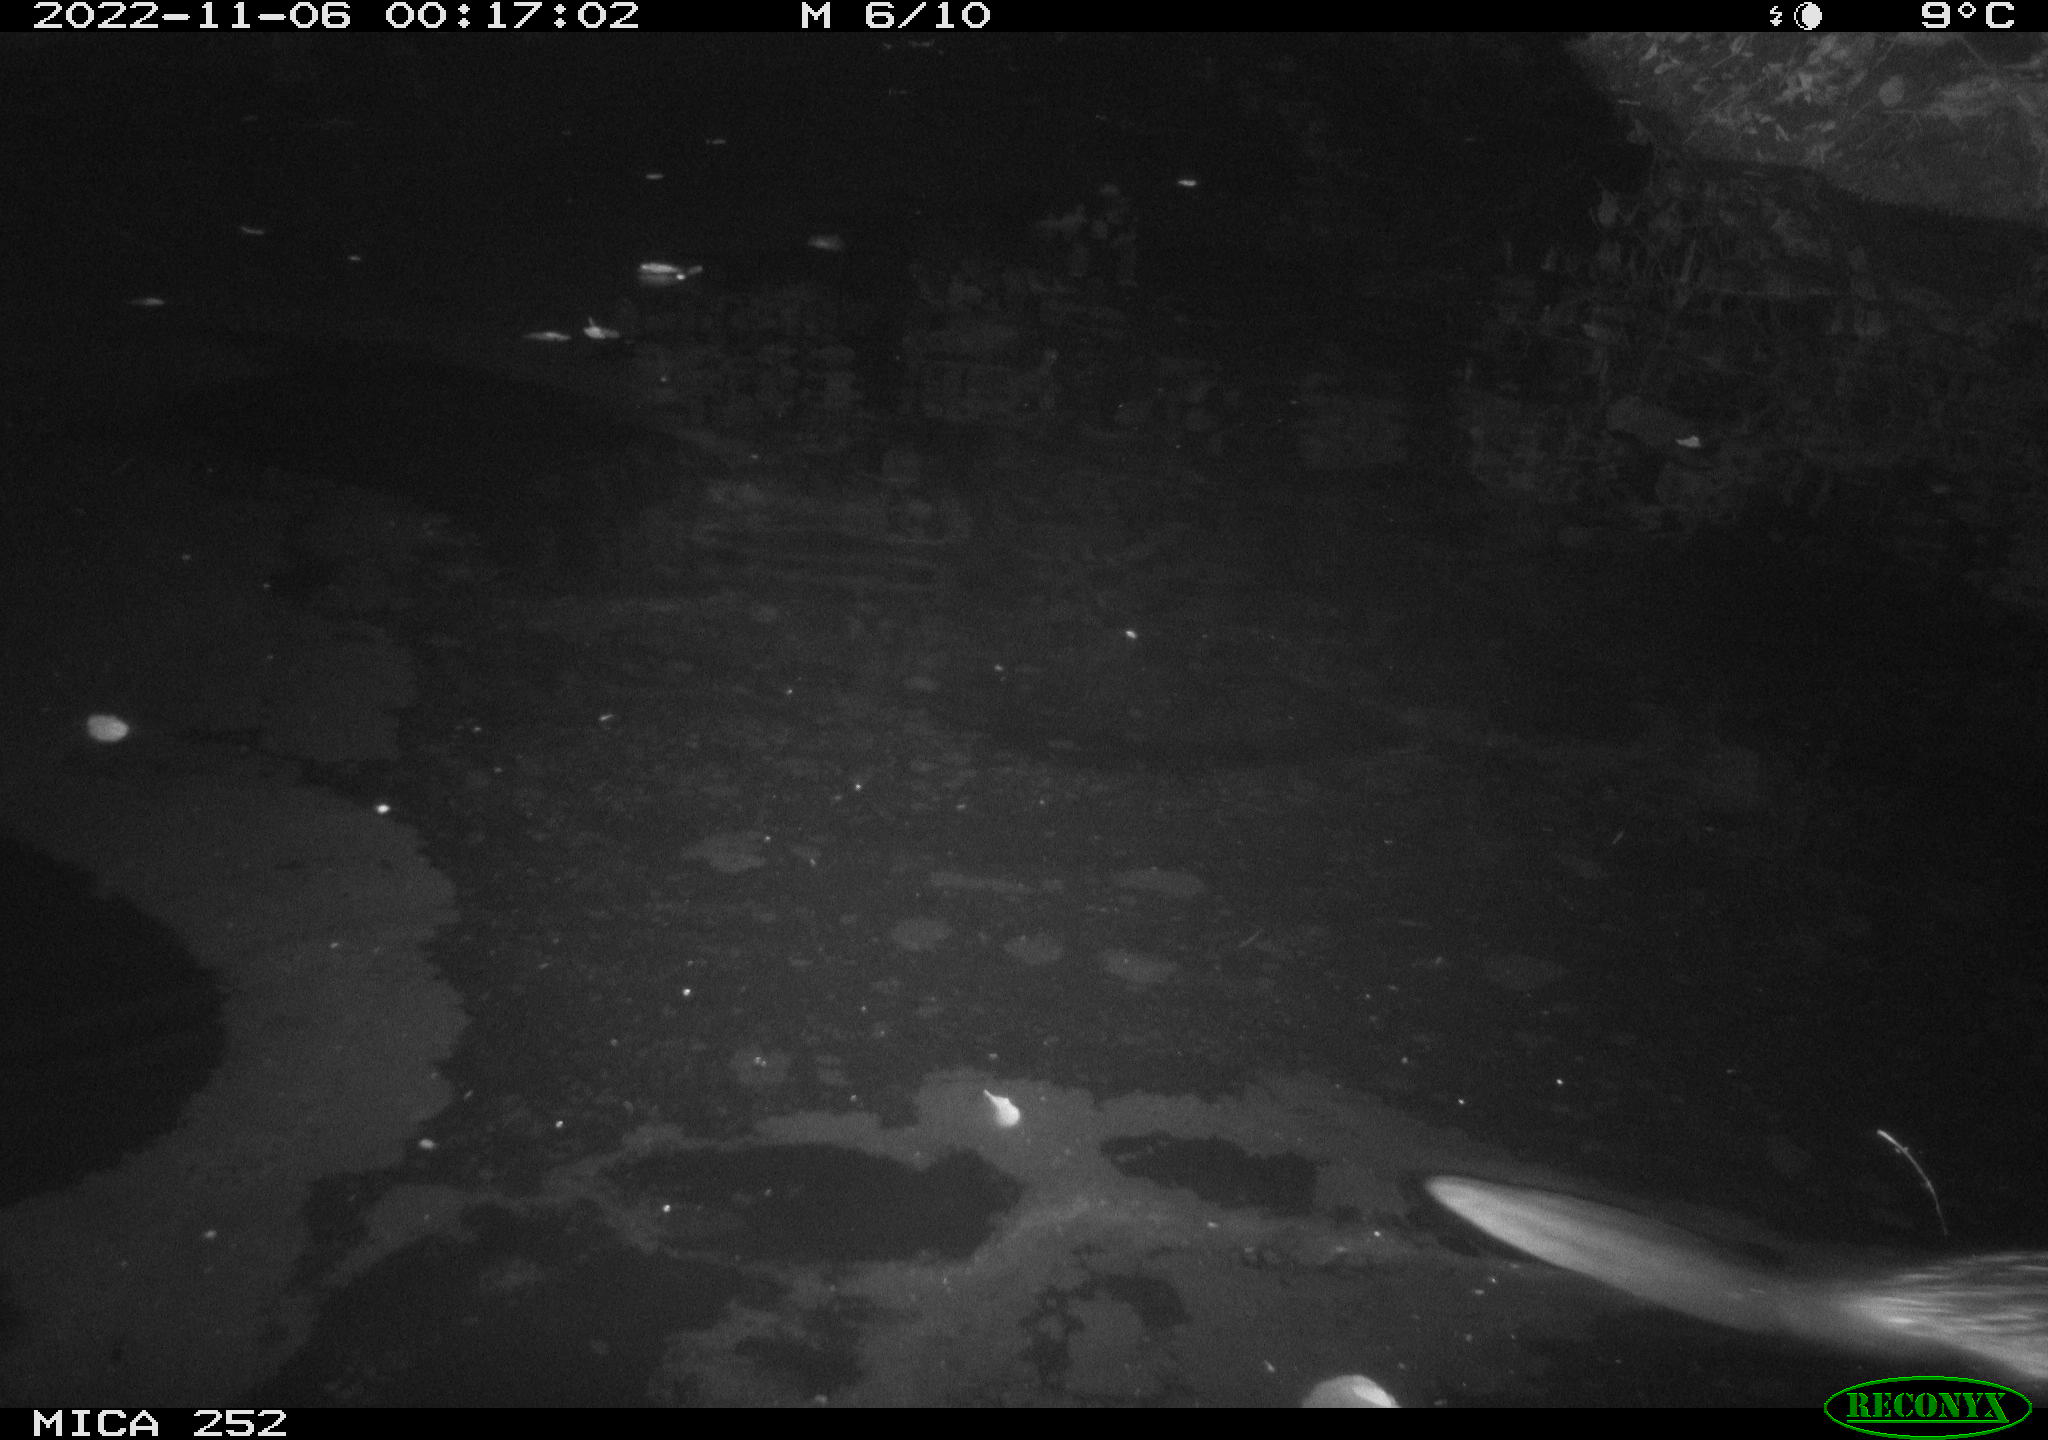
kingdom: Animalia
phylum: Chordata
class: Mammalia
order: Rodentia
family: Castoridae
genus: Castor
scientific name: Castor fiber
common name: Eurasian beaver
